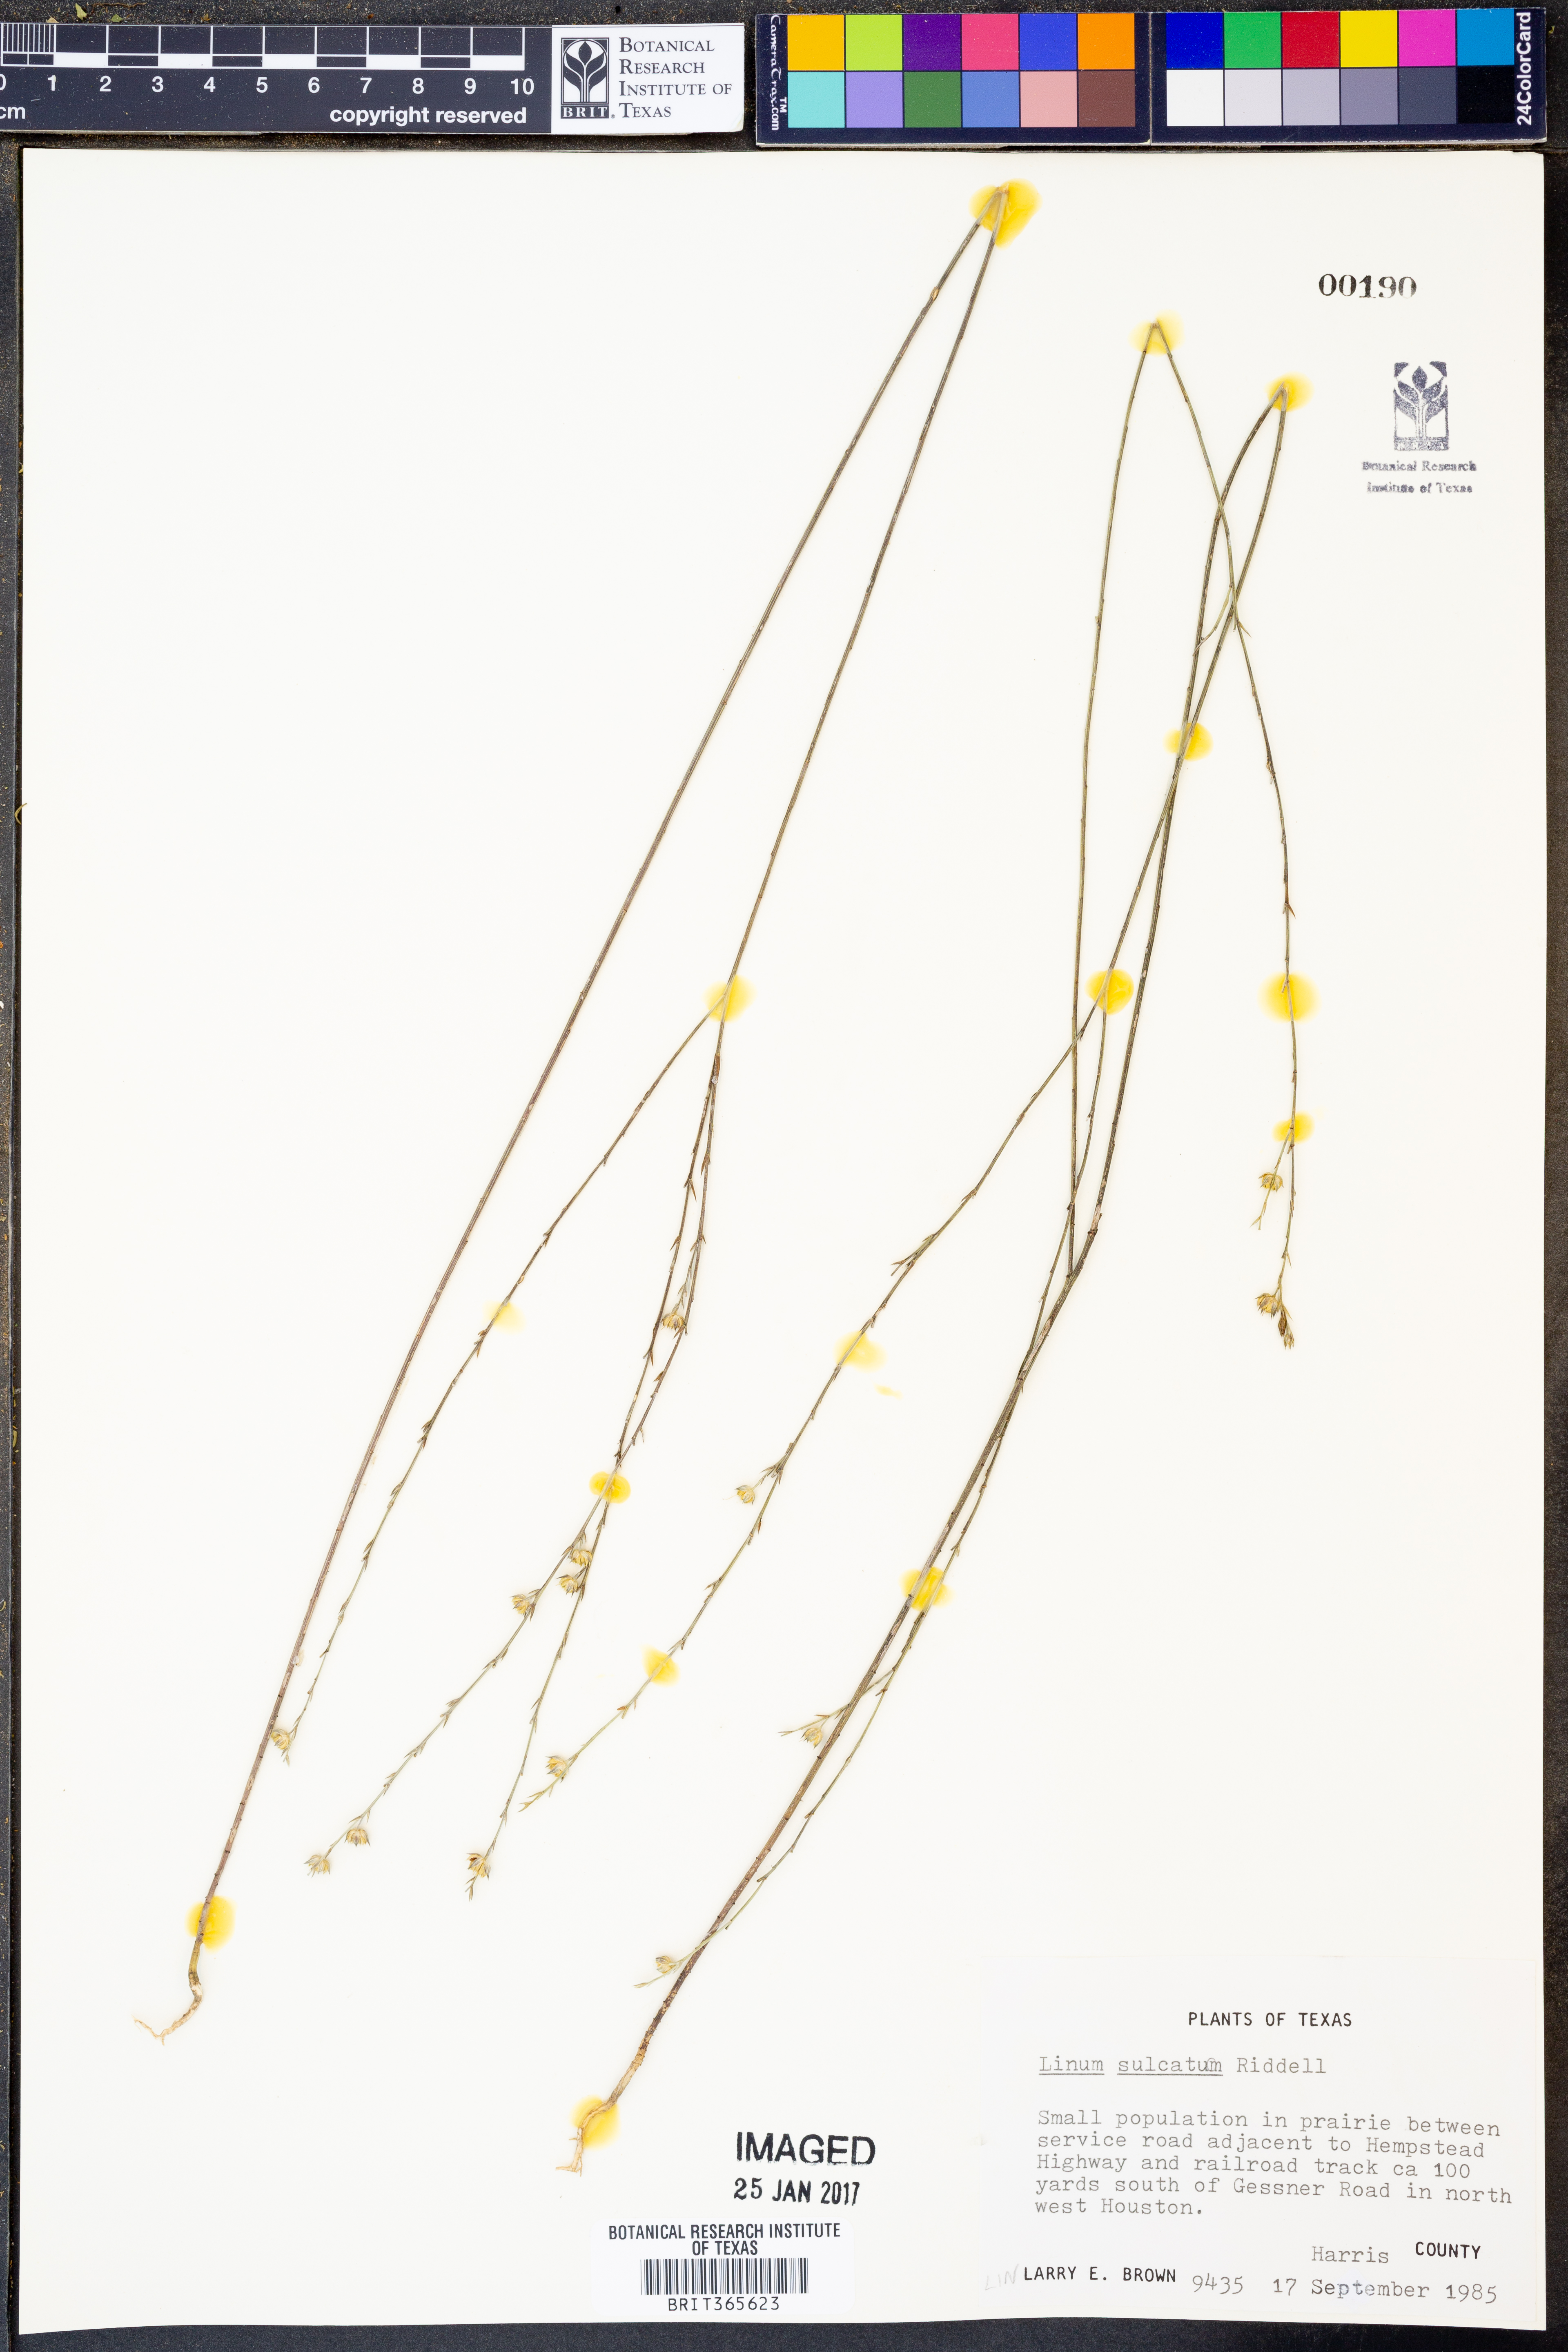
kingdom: Plantae
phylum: Tracheophyta
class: Magnoliopsida
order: Malpighiales
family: Linaceae
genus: Linum
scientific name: Linum sulcatum
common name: Grooved flax
